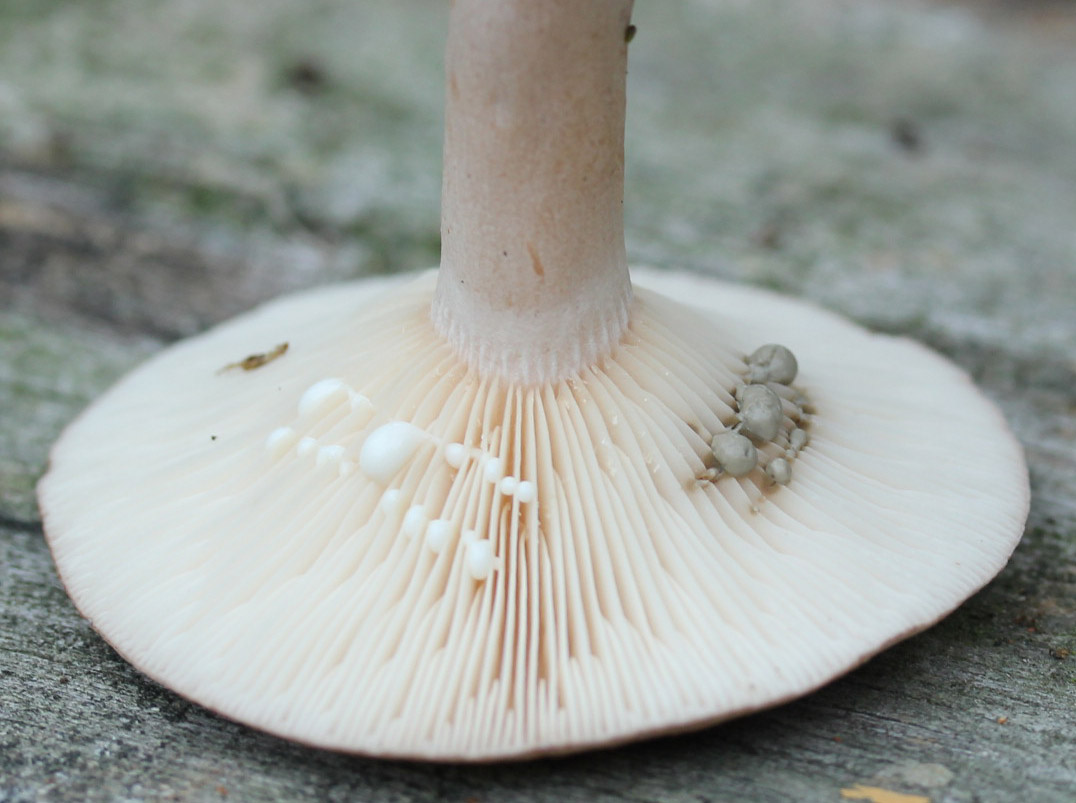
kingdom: Fungi
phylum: Basidiomycota
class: Agaricomycetes
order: Russulales
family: Russulaceae
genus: Lactarius
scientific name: Lactarius vietus
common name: violetgrå mælkehat
